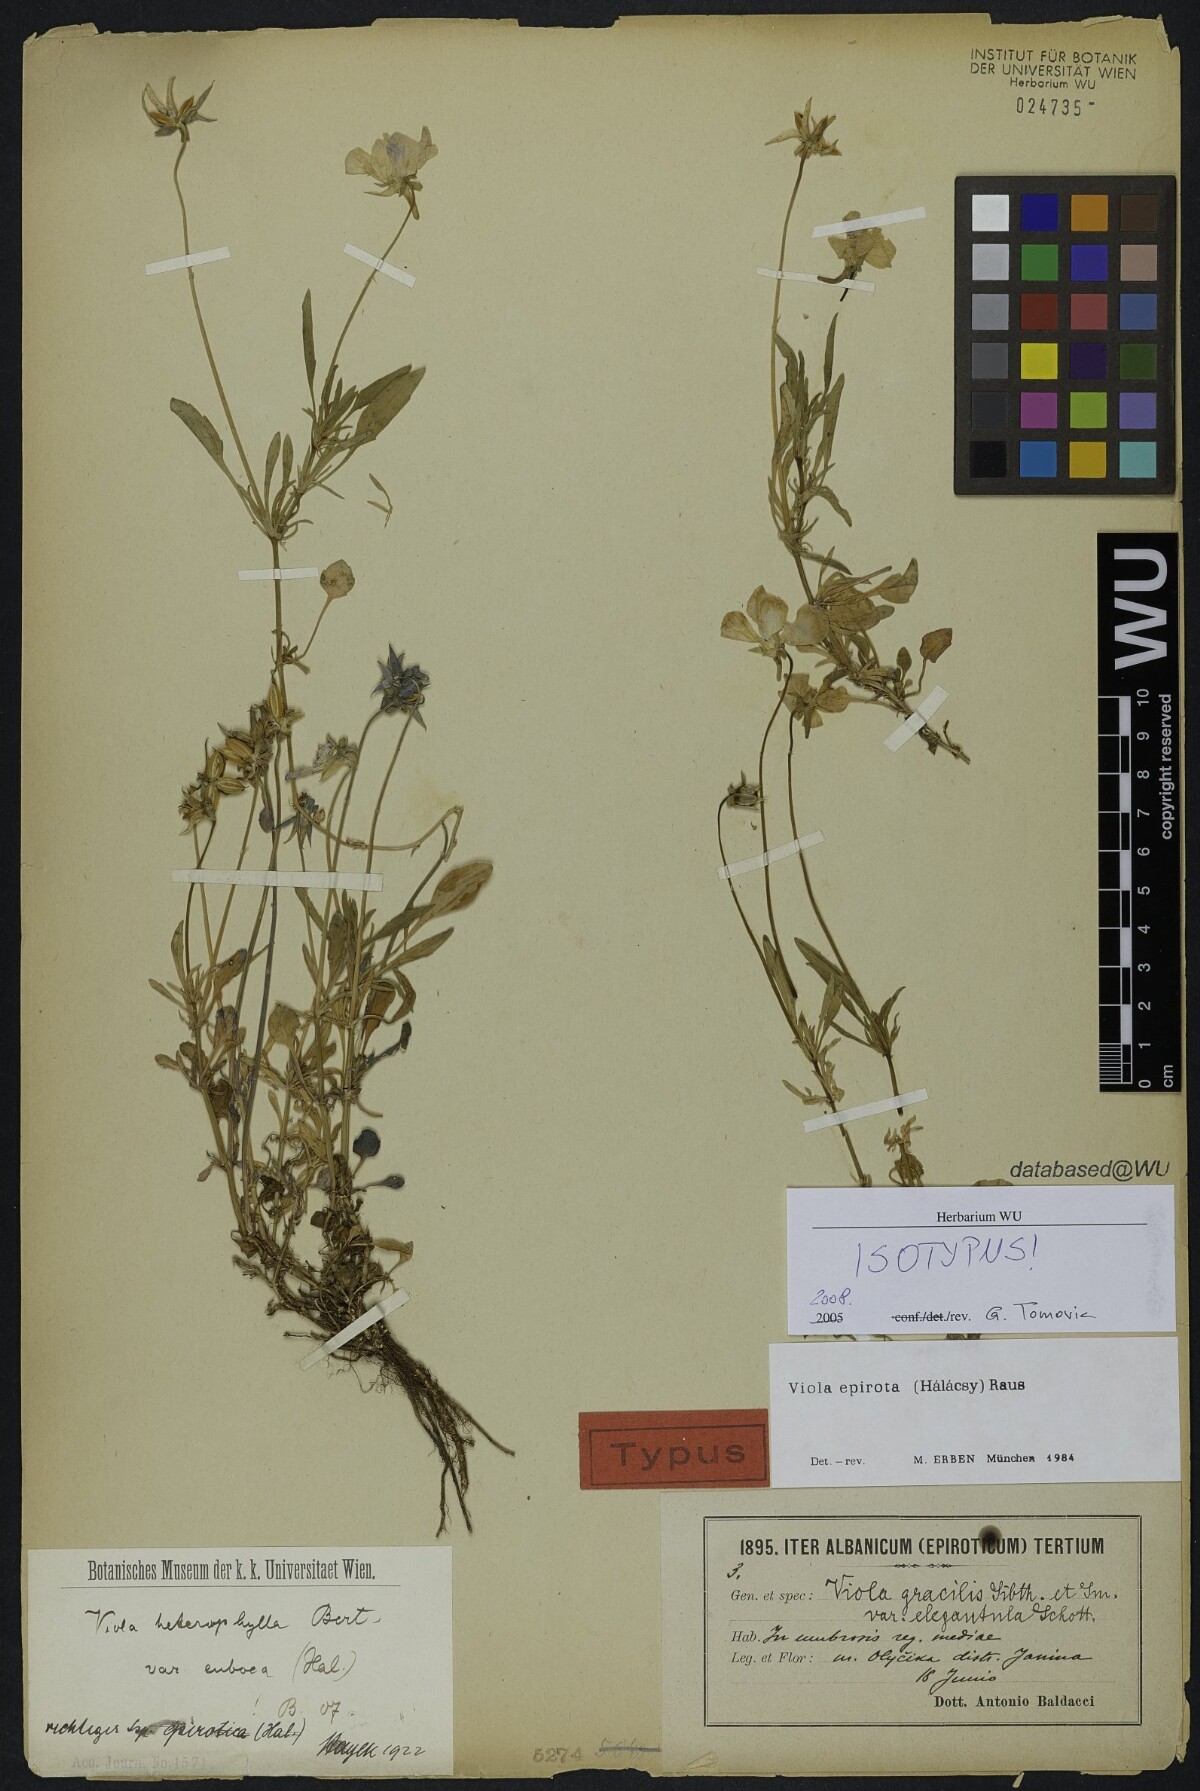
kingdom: Plantae
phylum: Tracheophyta
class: Magnoliopsida
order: Malpighiales
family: Violaceae
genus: Viola
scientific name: Viola epirota
